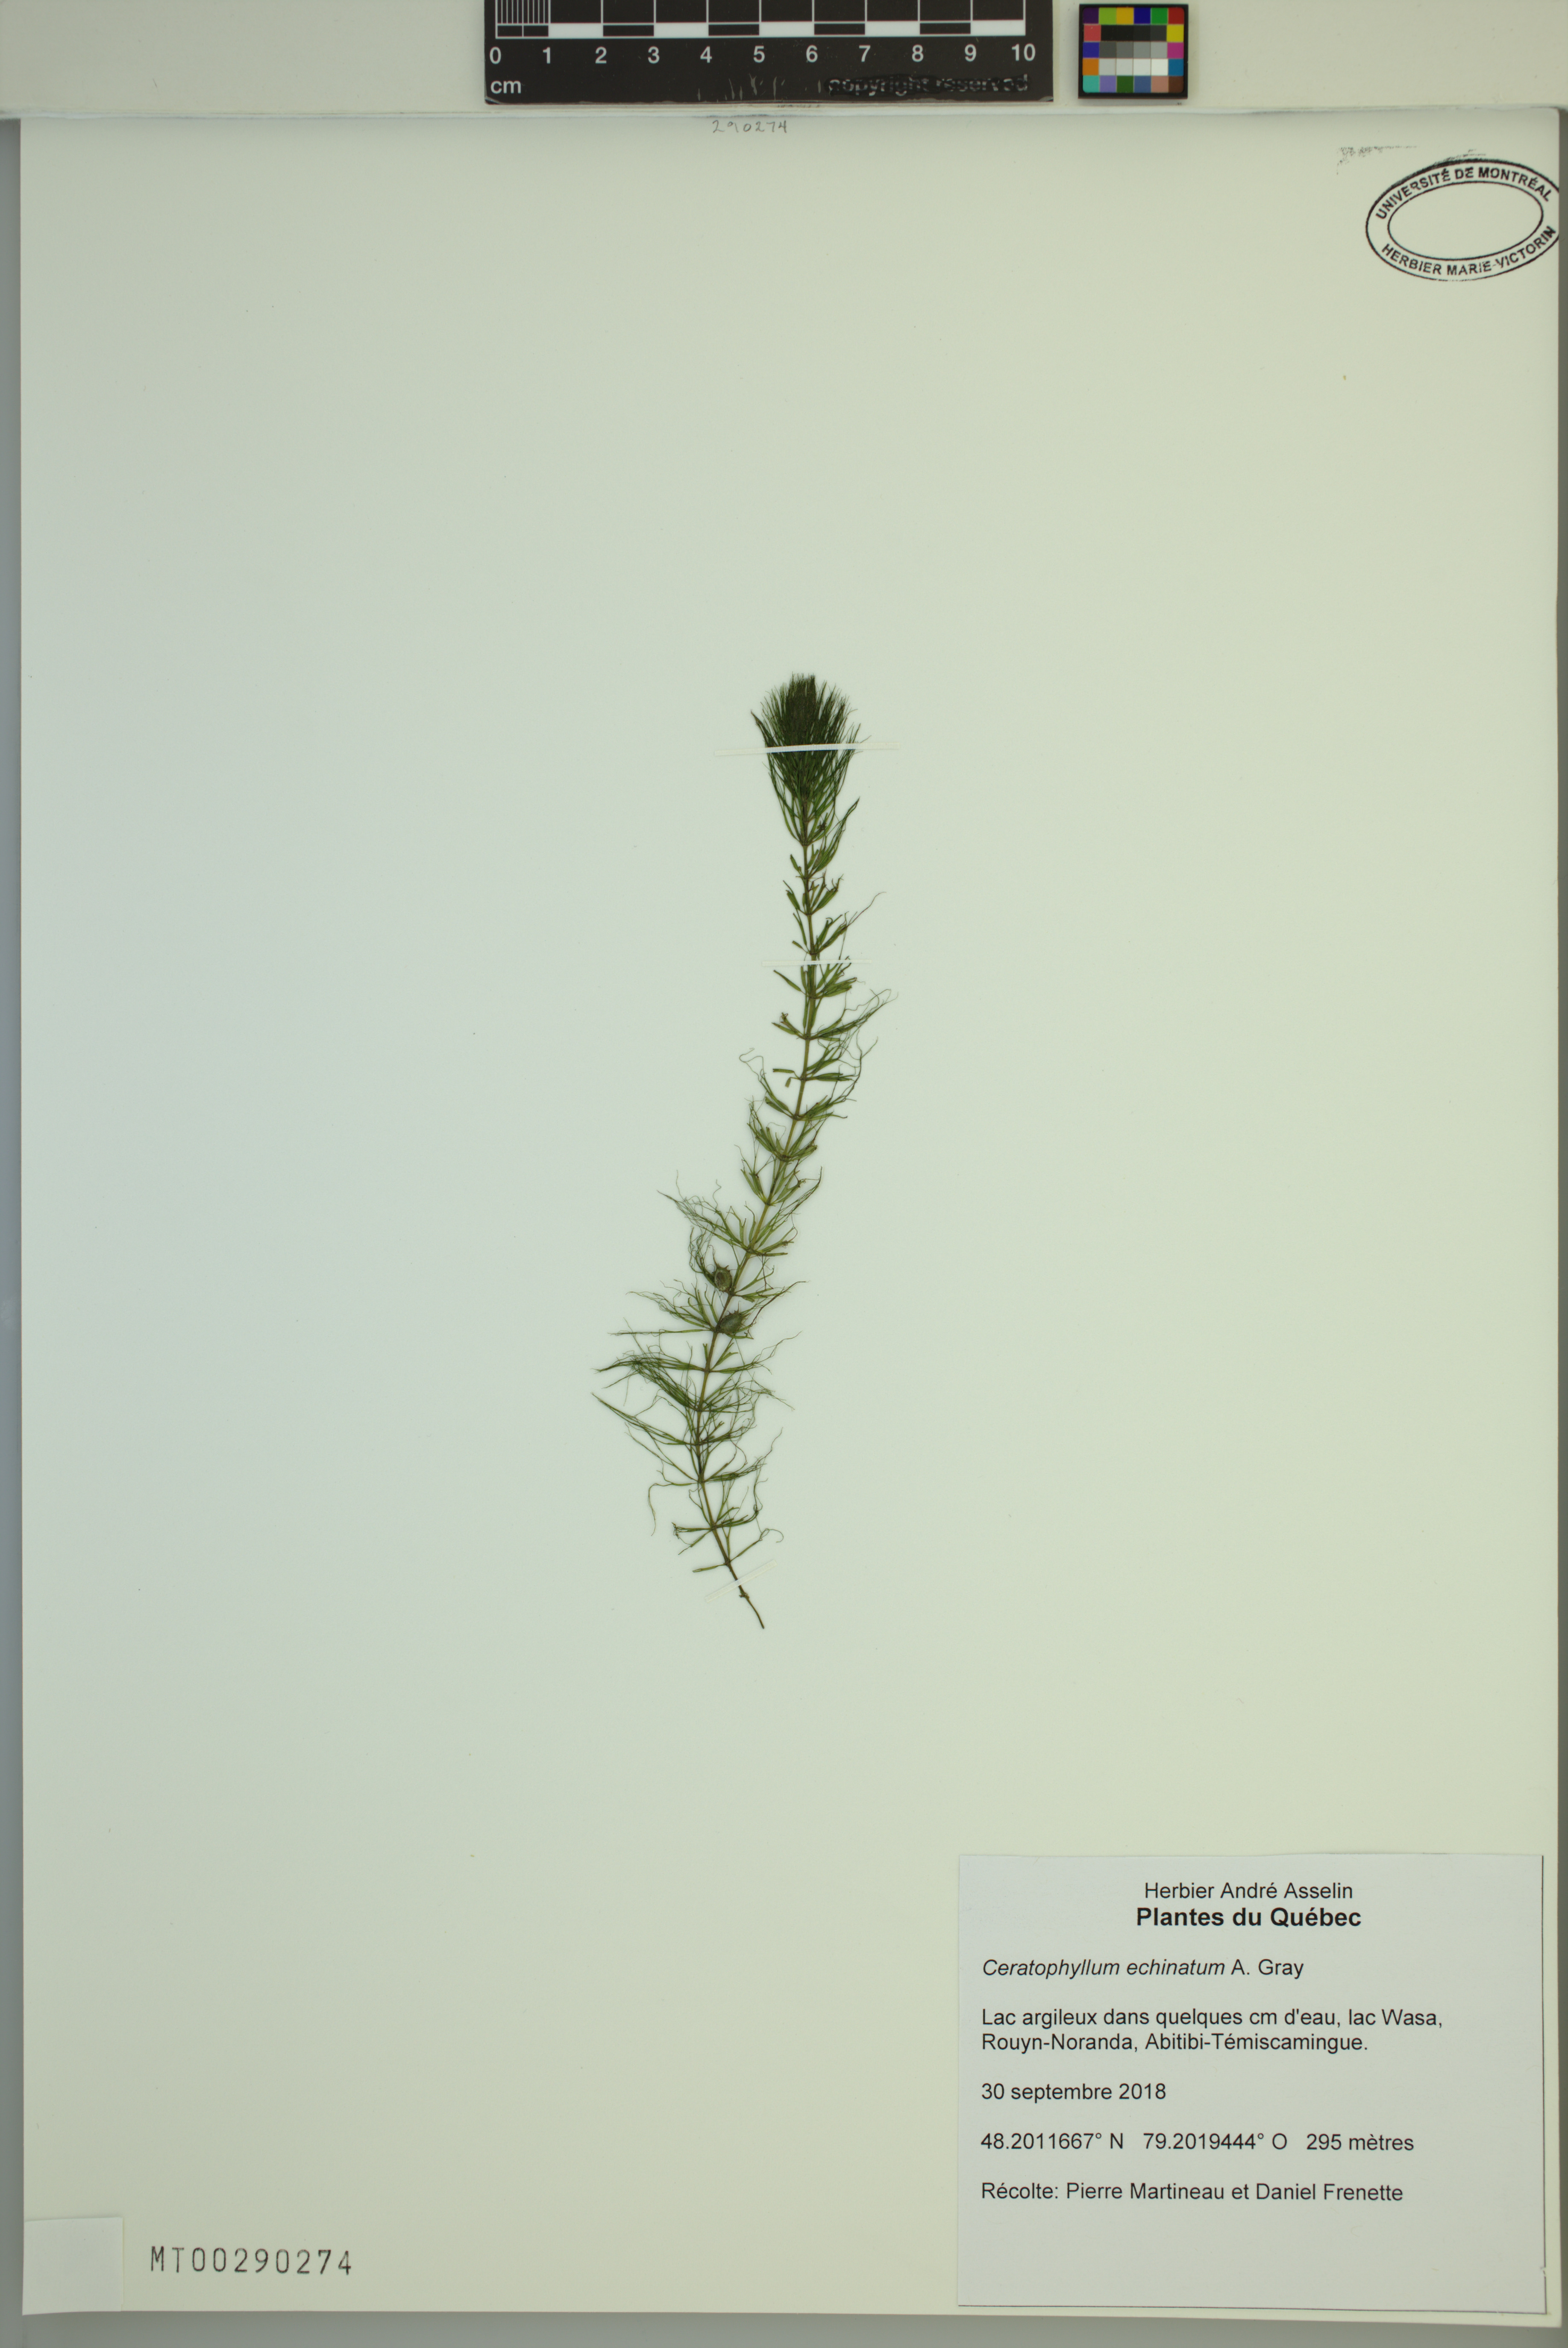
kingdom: Plantae
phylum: Tracheophyta
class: Magnoliopsida
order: Ceratophyllales
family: Ceratophyllaceae
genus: Ceratophyllum
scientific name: Ceratophyllum demersum
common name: Rigid hornwort
